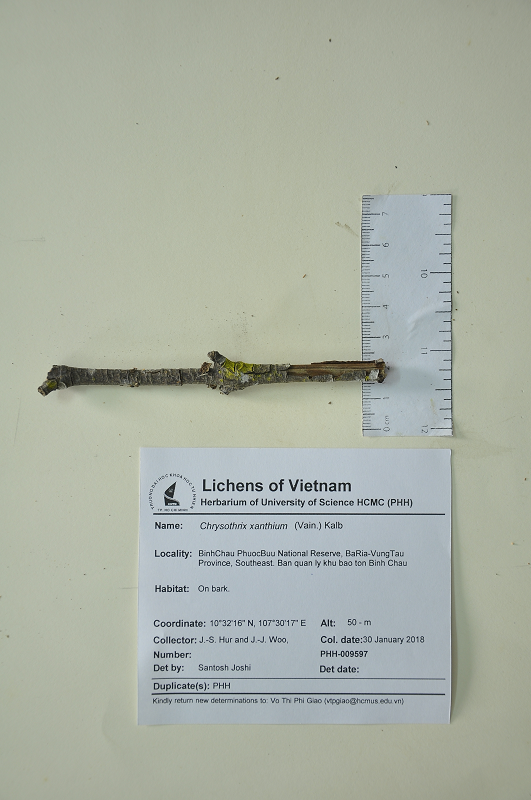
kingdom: Fungi
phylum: Ascomycota
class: Arthoniomycetes
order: Arthoniales
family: Chrysotrichaceae
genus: Chrysothrix
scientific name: Chrysothrix xanthina
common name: Common gold-dust
